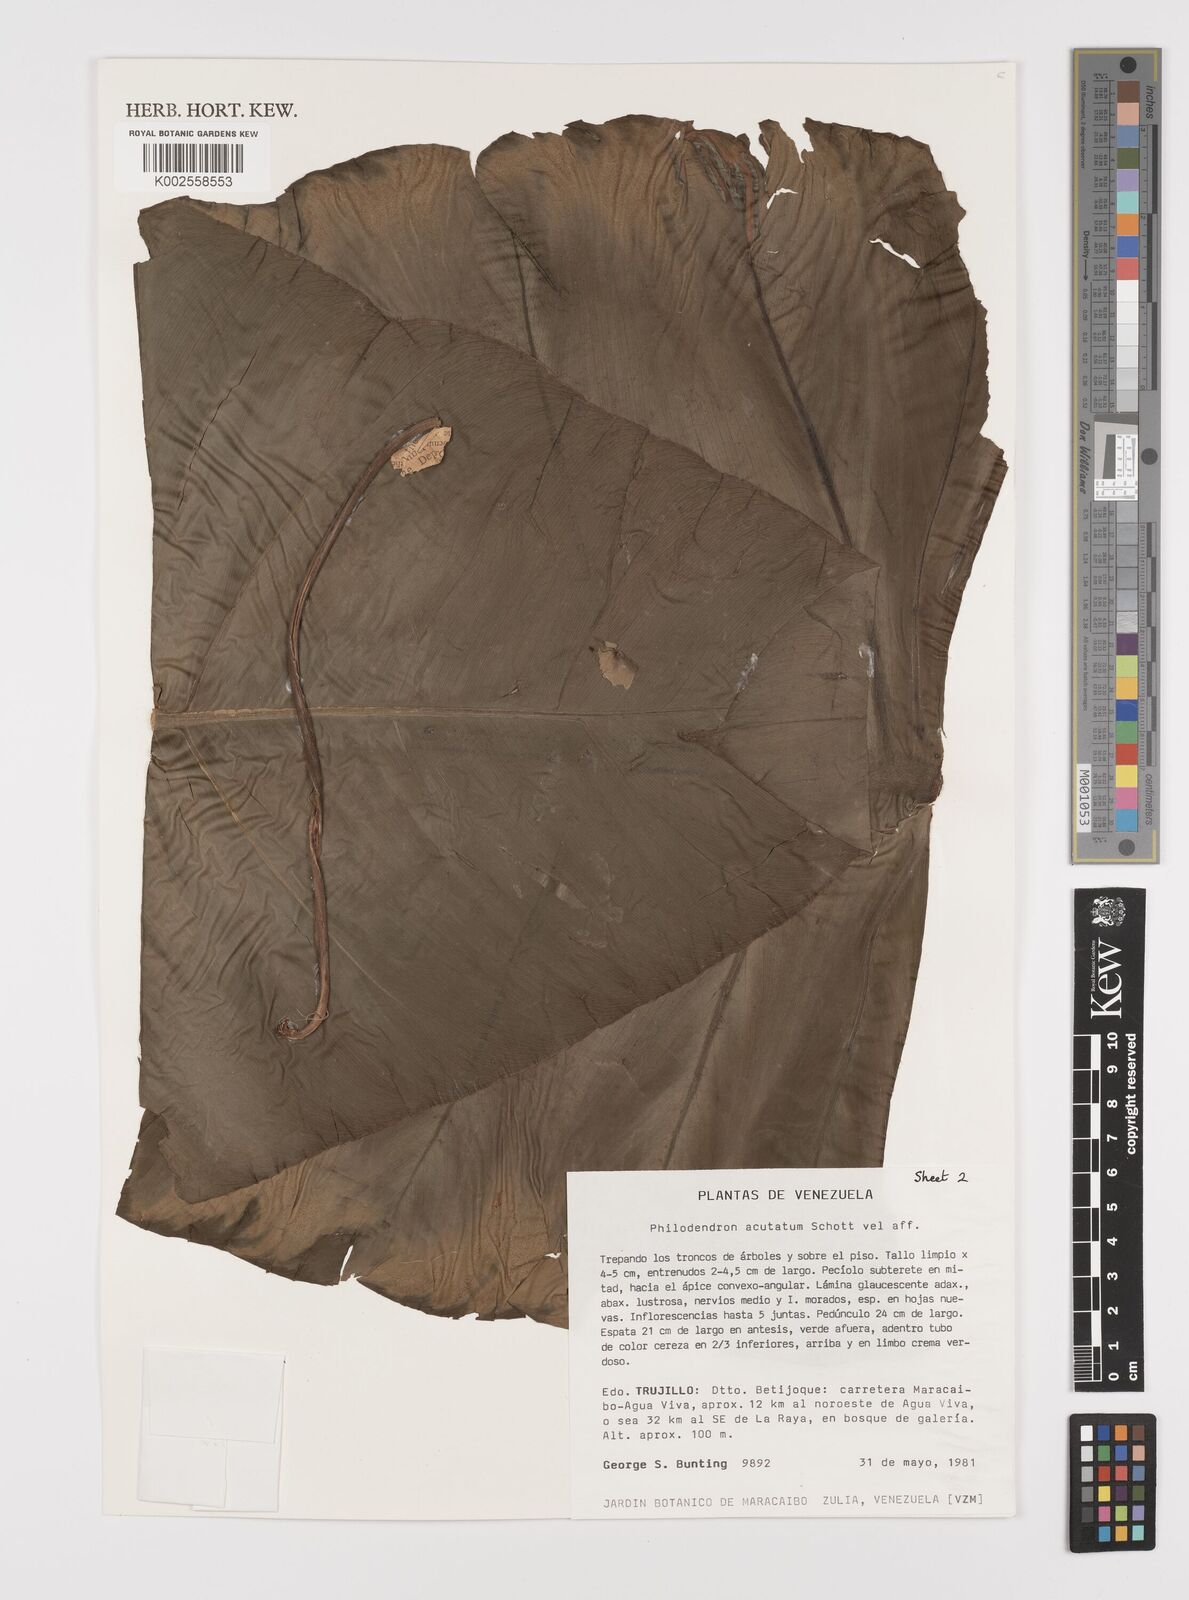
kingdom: Plantae
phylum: Tracheophyta
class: Liliopsida
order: Alismatales
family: Araceae
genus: Philodendron
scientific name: Philodendron quinquenervium
